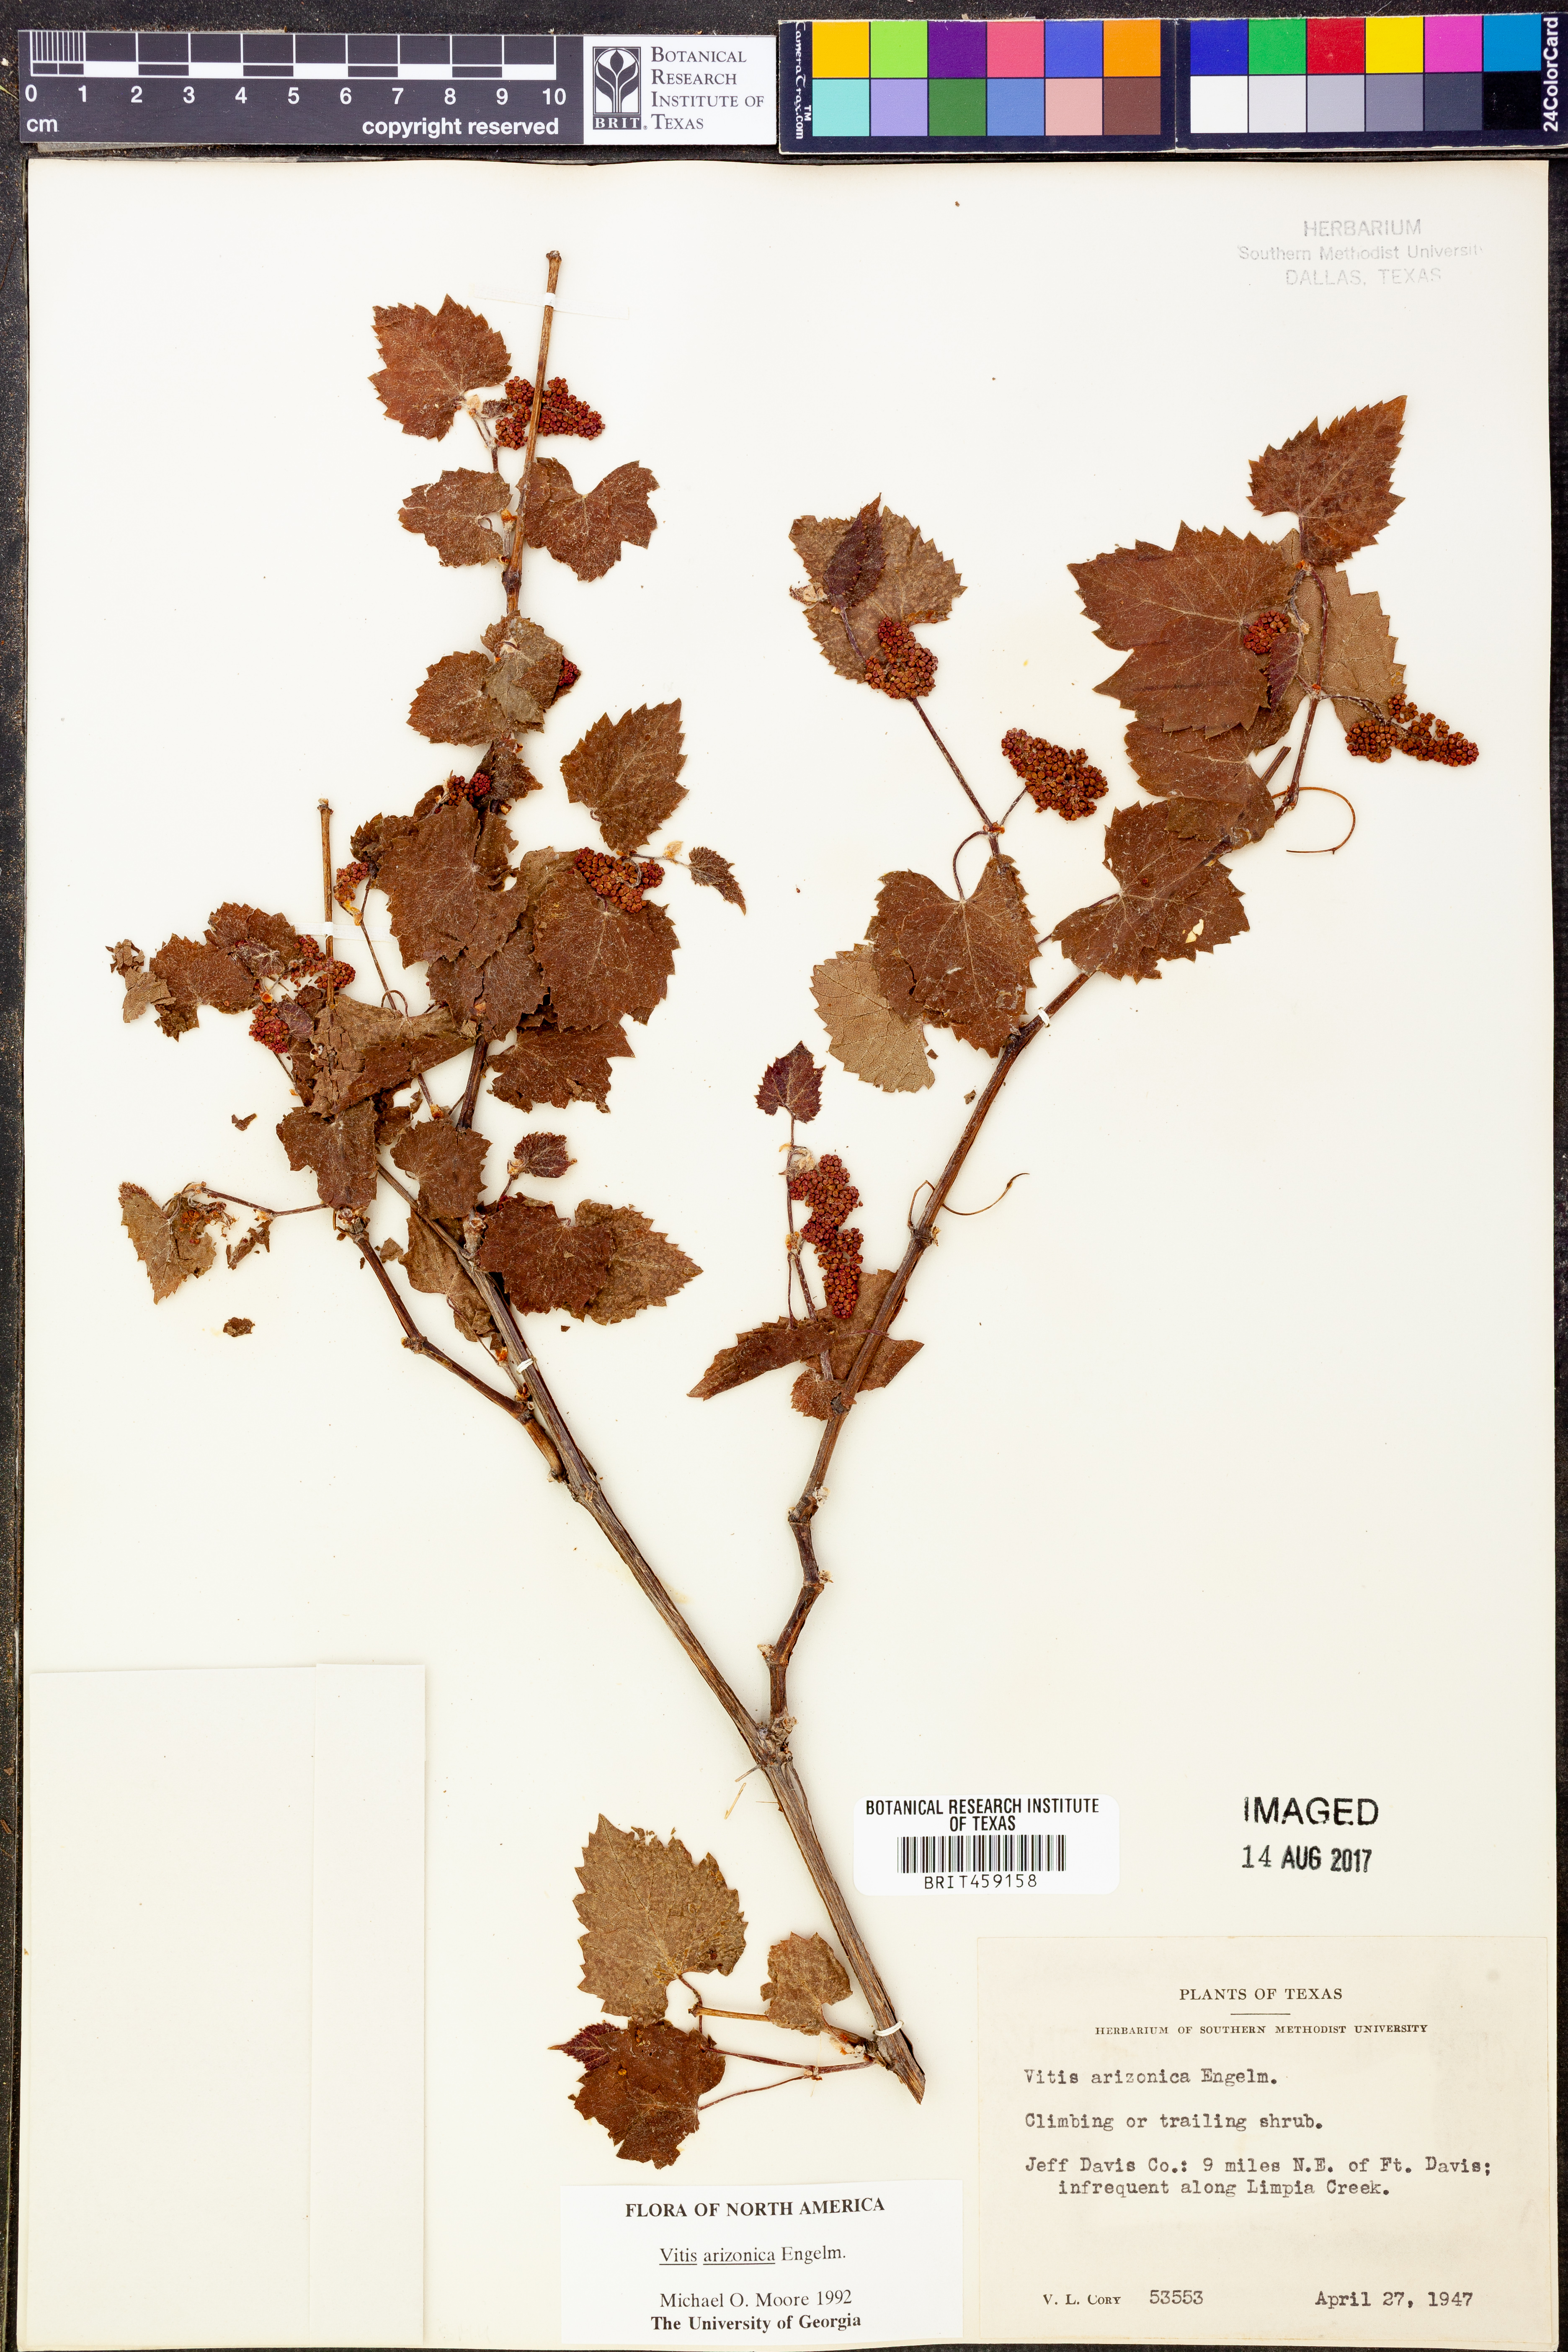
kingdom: Plantae
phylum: Tracheophyta
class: Magnoliopsida
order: Vitales
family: Vitaceae
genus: Vitis
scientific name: Vitis arizonica
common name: Canyon grape
